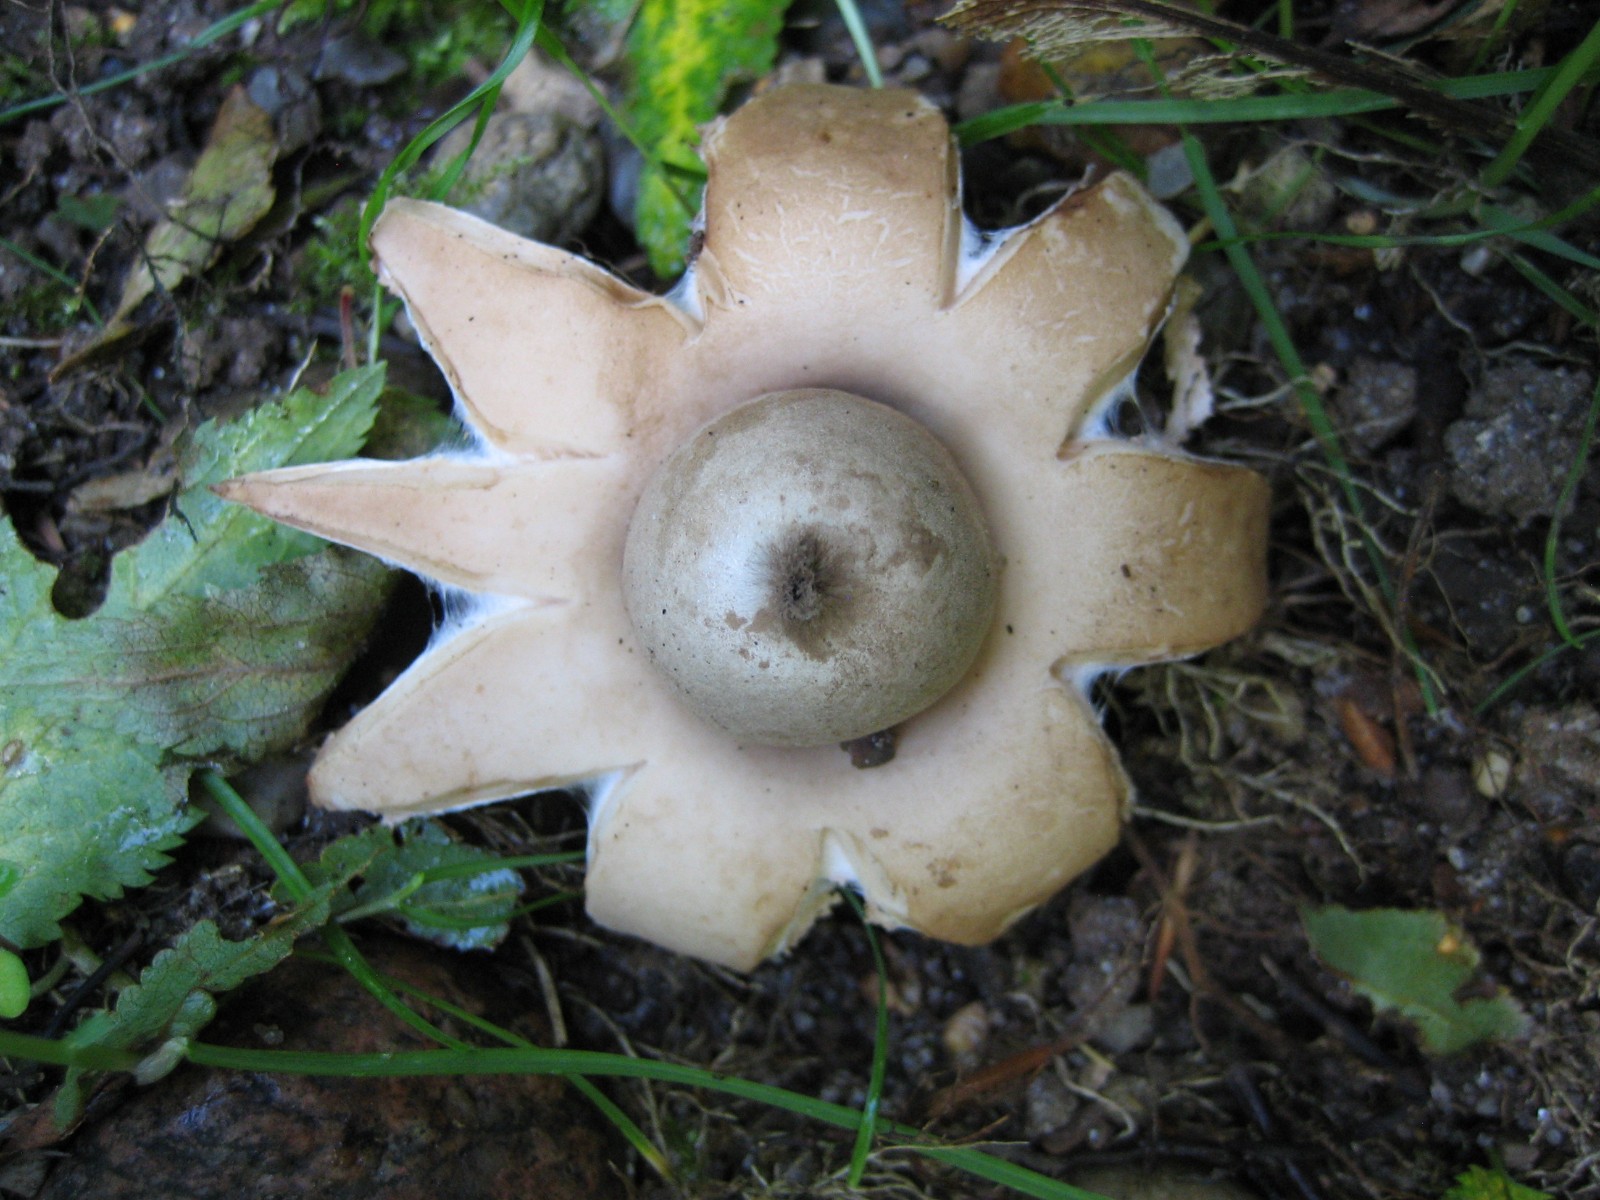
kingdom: Fungi
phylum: Basidiomycota
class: Agaricomycetes
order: Geastrales
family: Geastraceae
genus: Geastrum
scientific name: Geastrum fimbriatum
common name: frynset stjernebold
